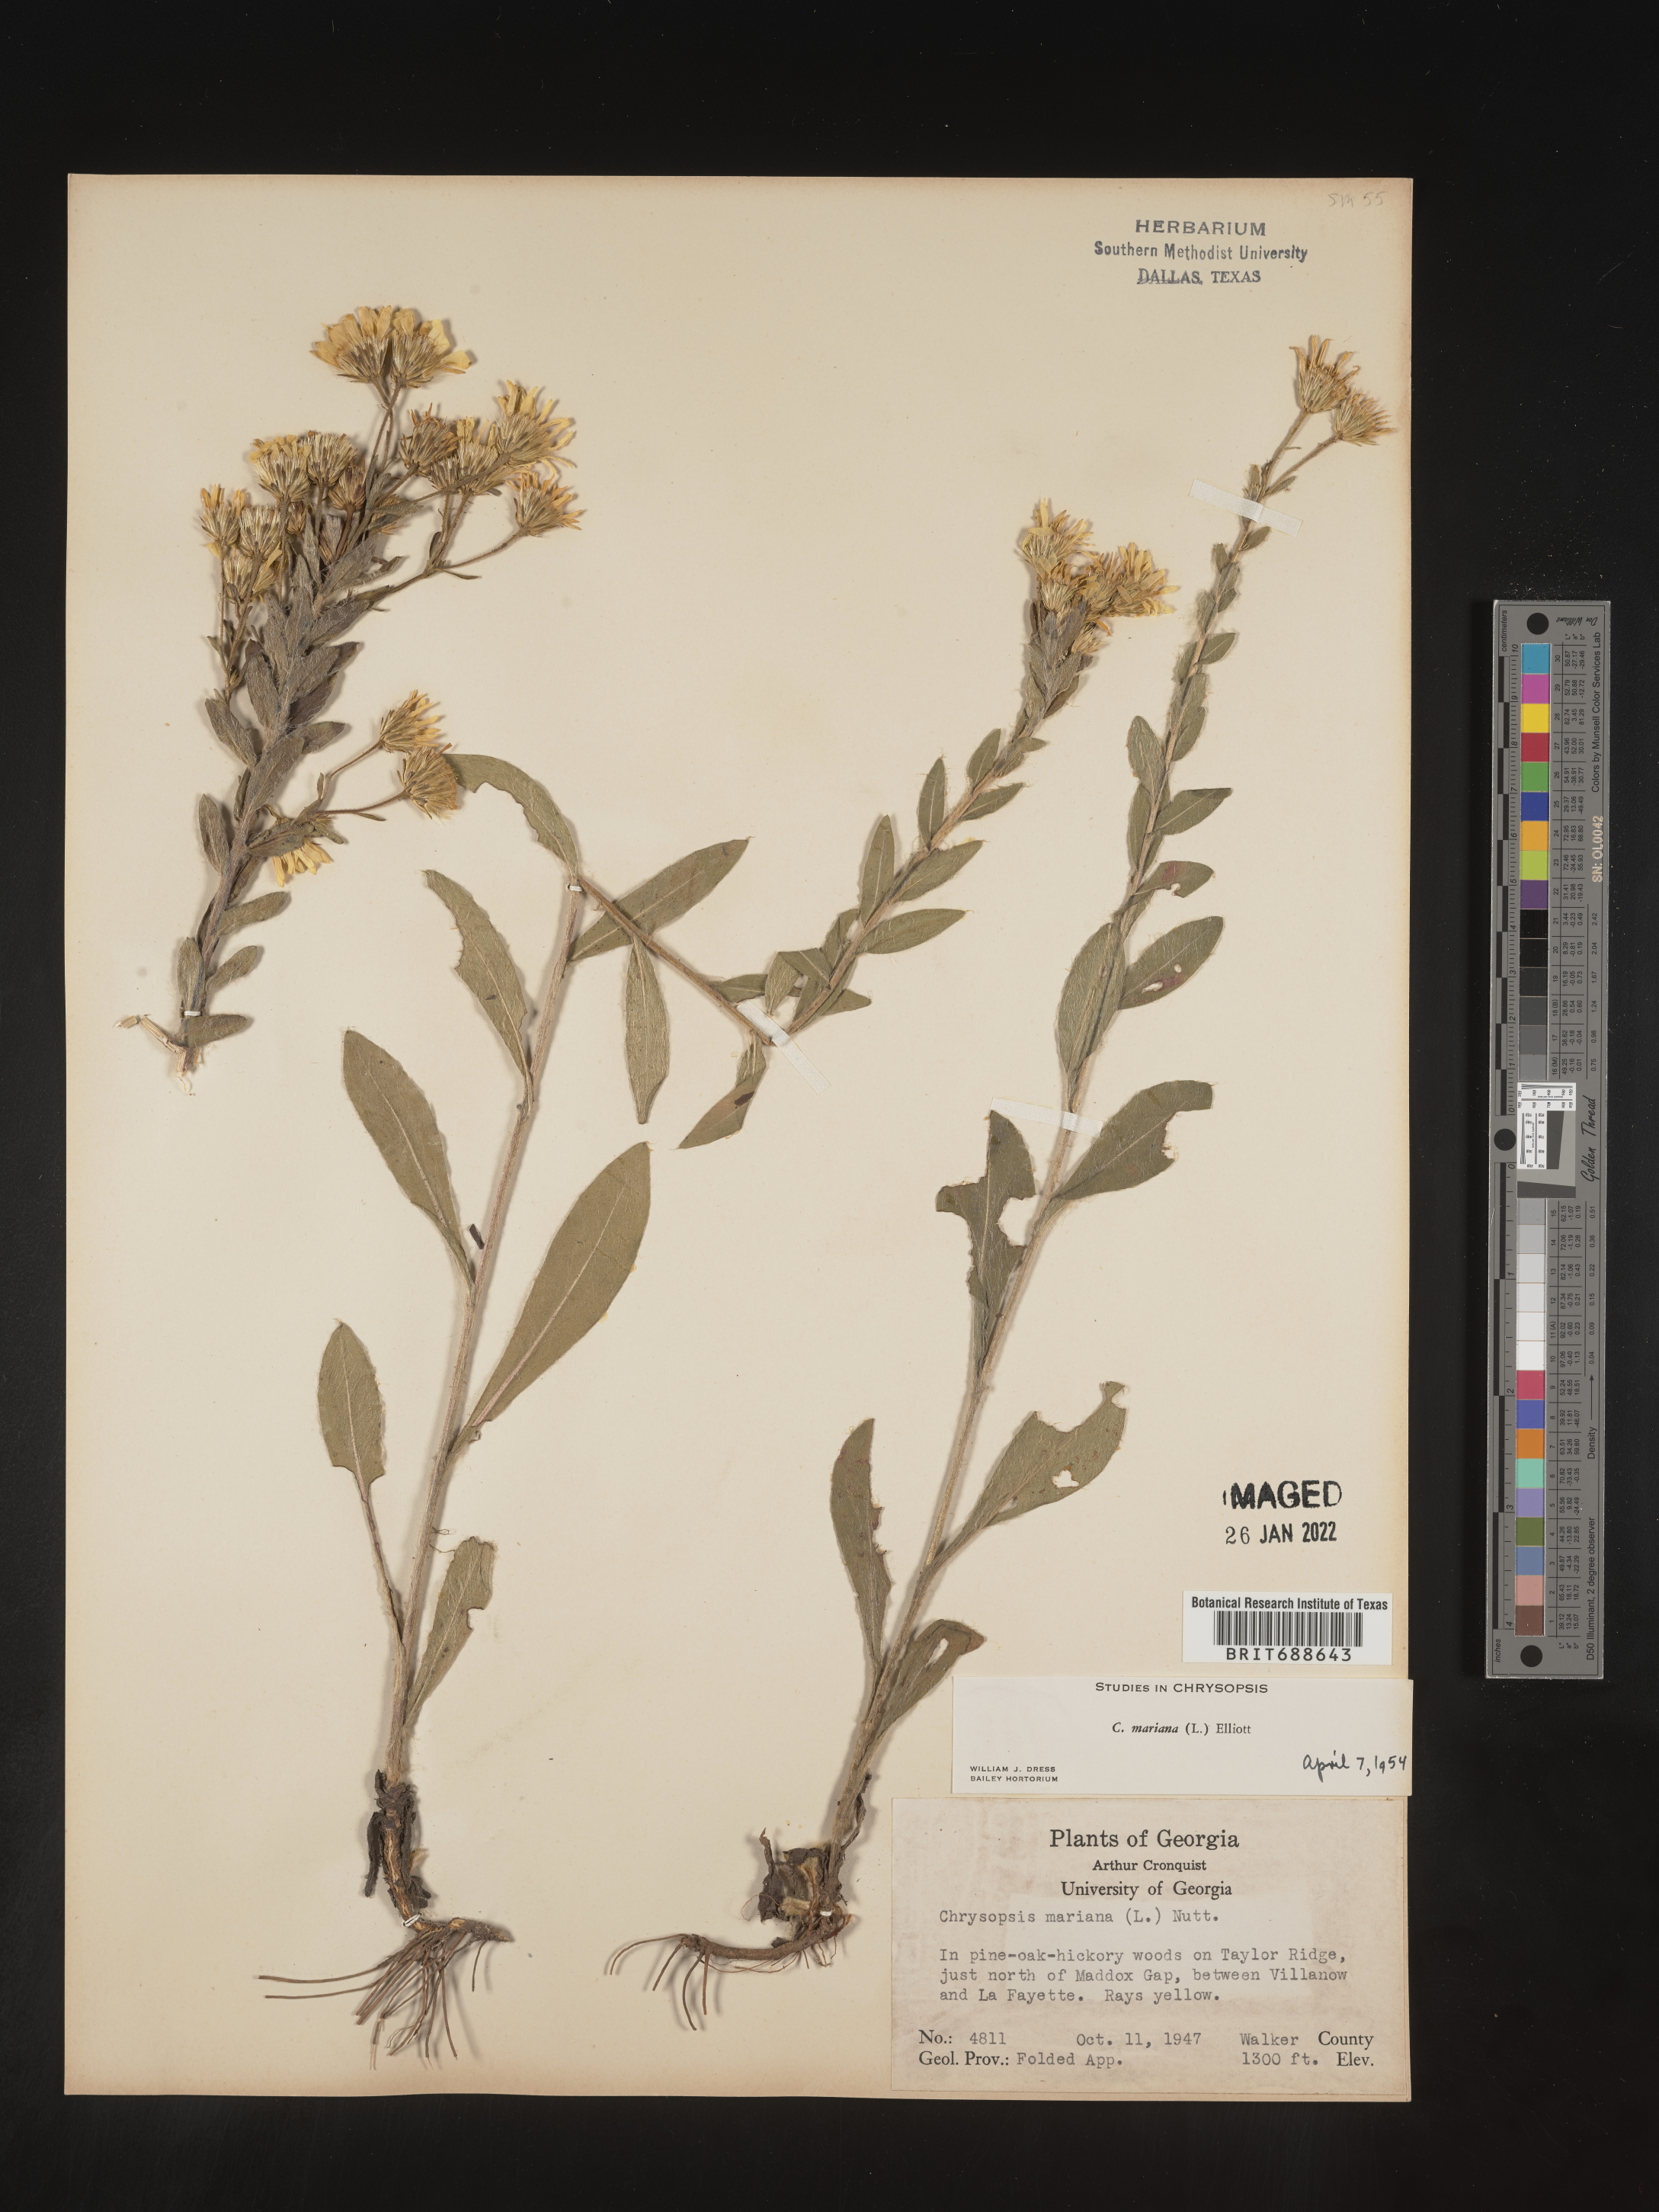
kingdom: Plantae
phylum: Tracheophyta
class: Magnoliopsida
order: Asterales
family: Asteraceae
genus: Chrysopsis
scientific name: Chrysopsis mariana
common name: Maryland golden-aster
